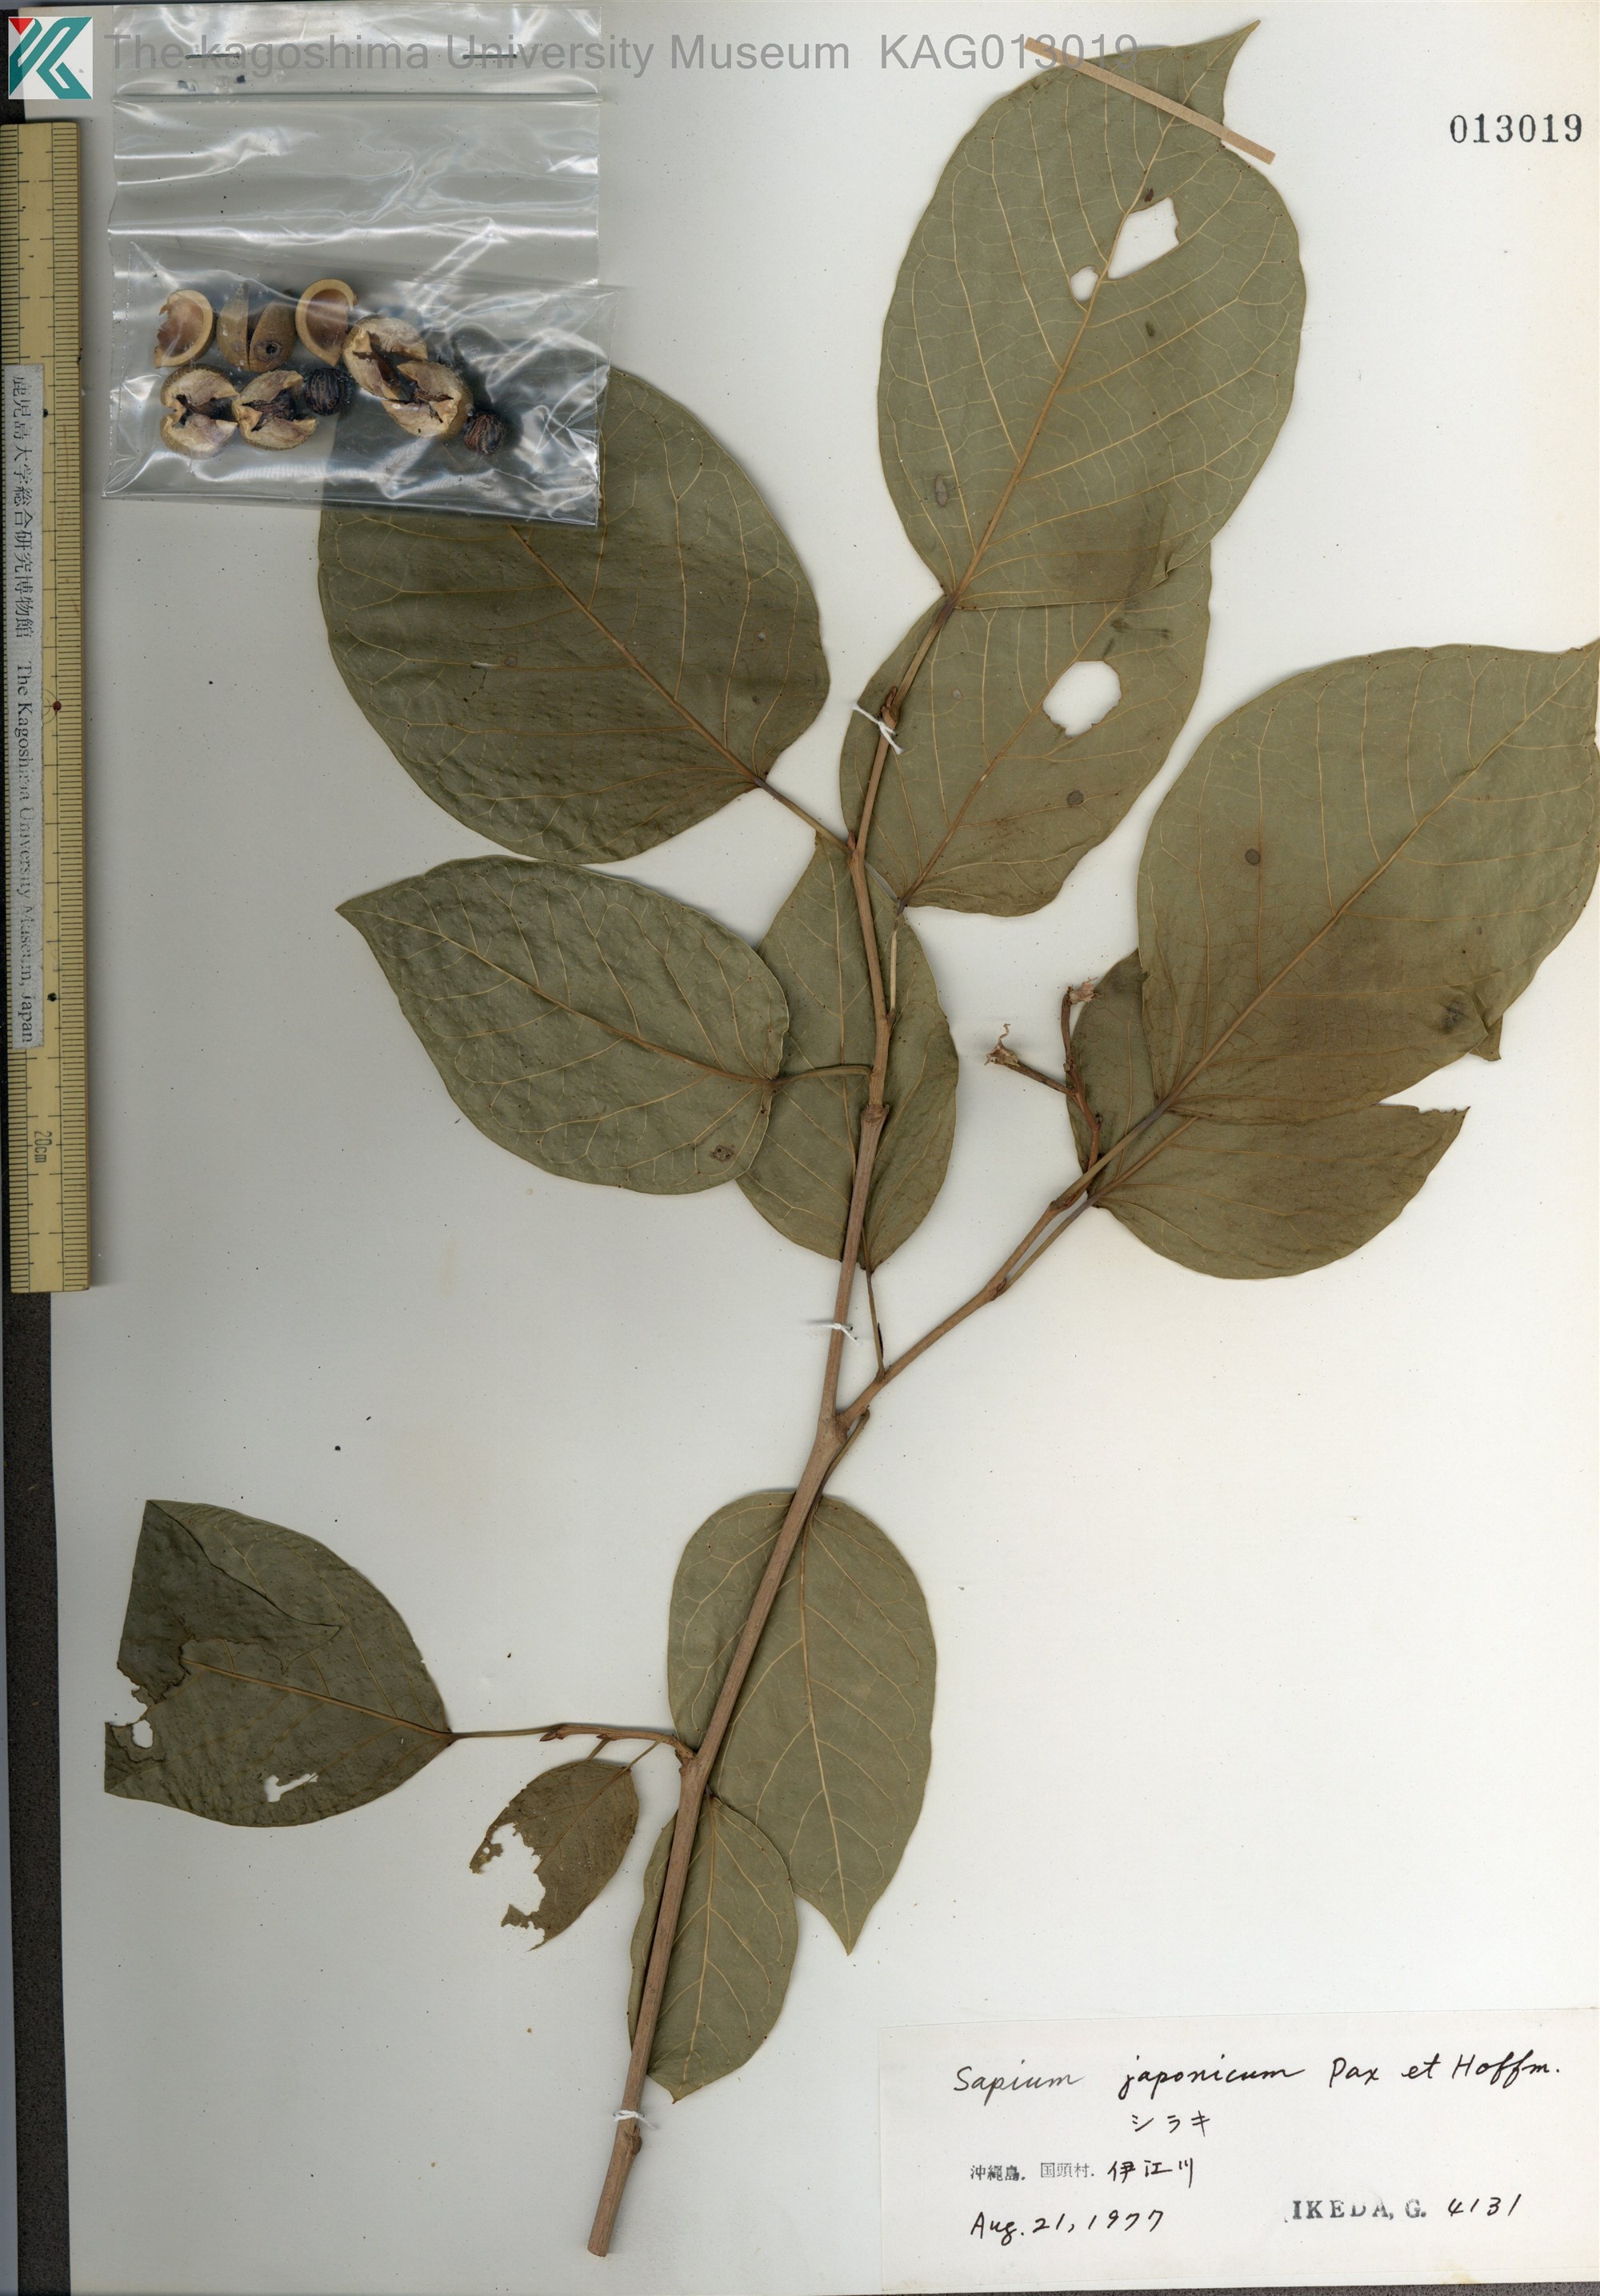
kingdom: Plantae
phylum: Tracheophyta
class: Magnoliopsida
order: Malpighiales
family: Euphorbiaceae
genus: Neoshirakia
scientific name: Neoshirakia japonica
